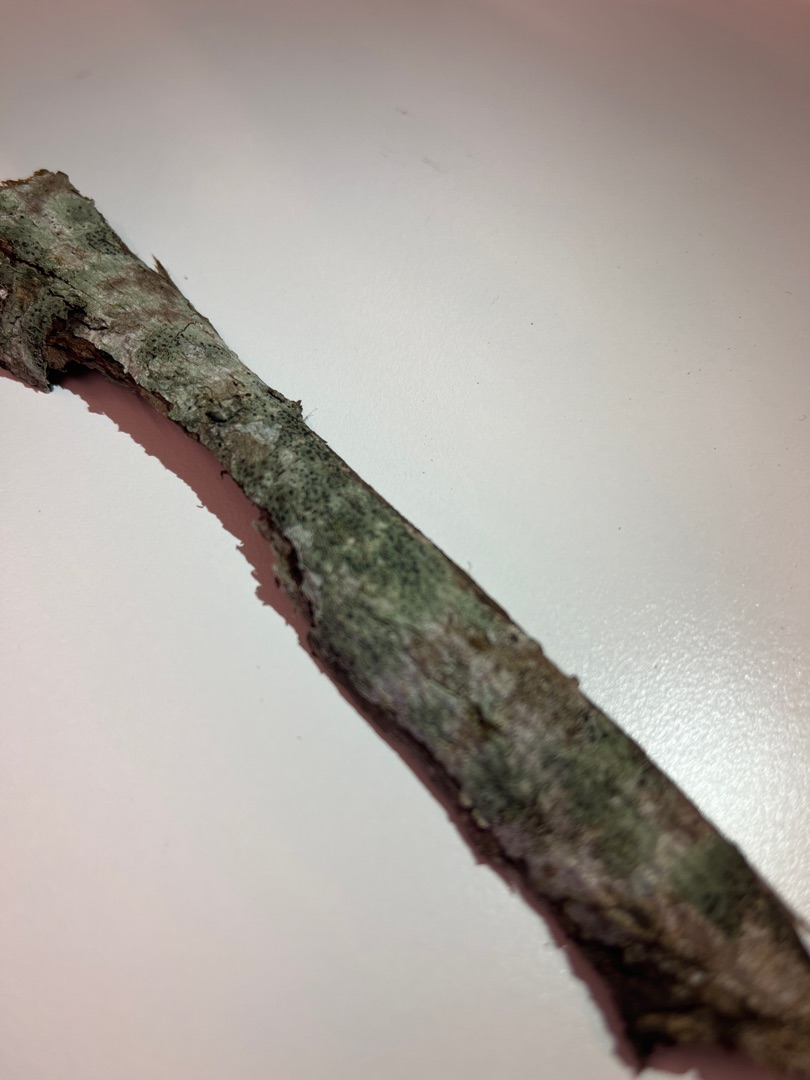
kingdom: Fungi
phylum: Ascomycota
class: Lecanoromycetes
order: Lecanorales
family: Lecanoraceae
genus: Lecidella
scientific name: Lecidella elaeochroma
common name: Grågrøn skivelav
